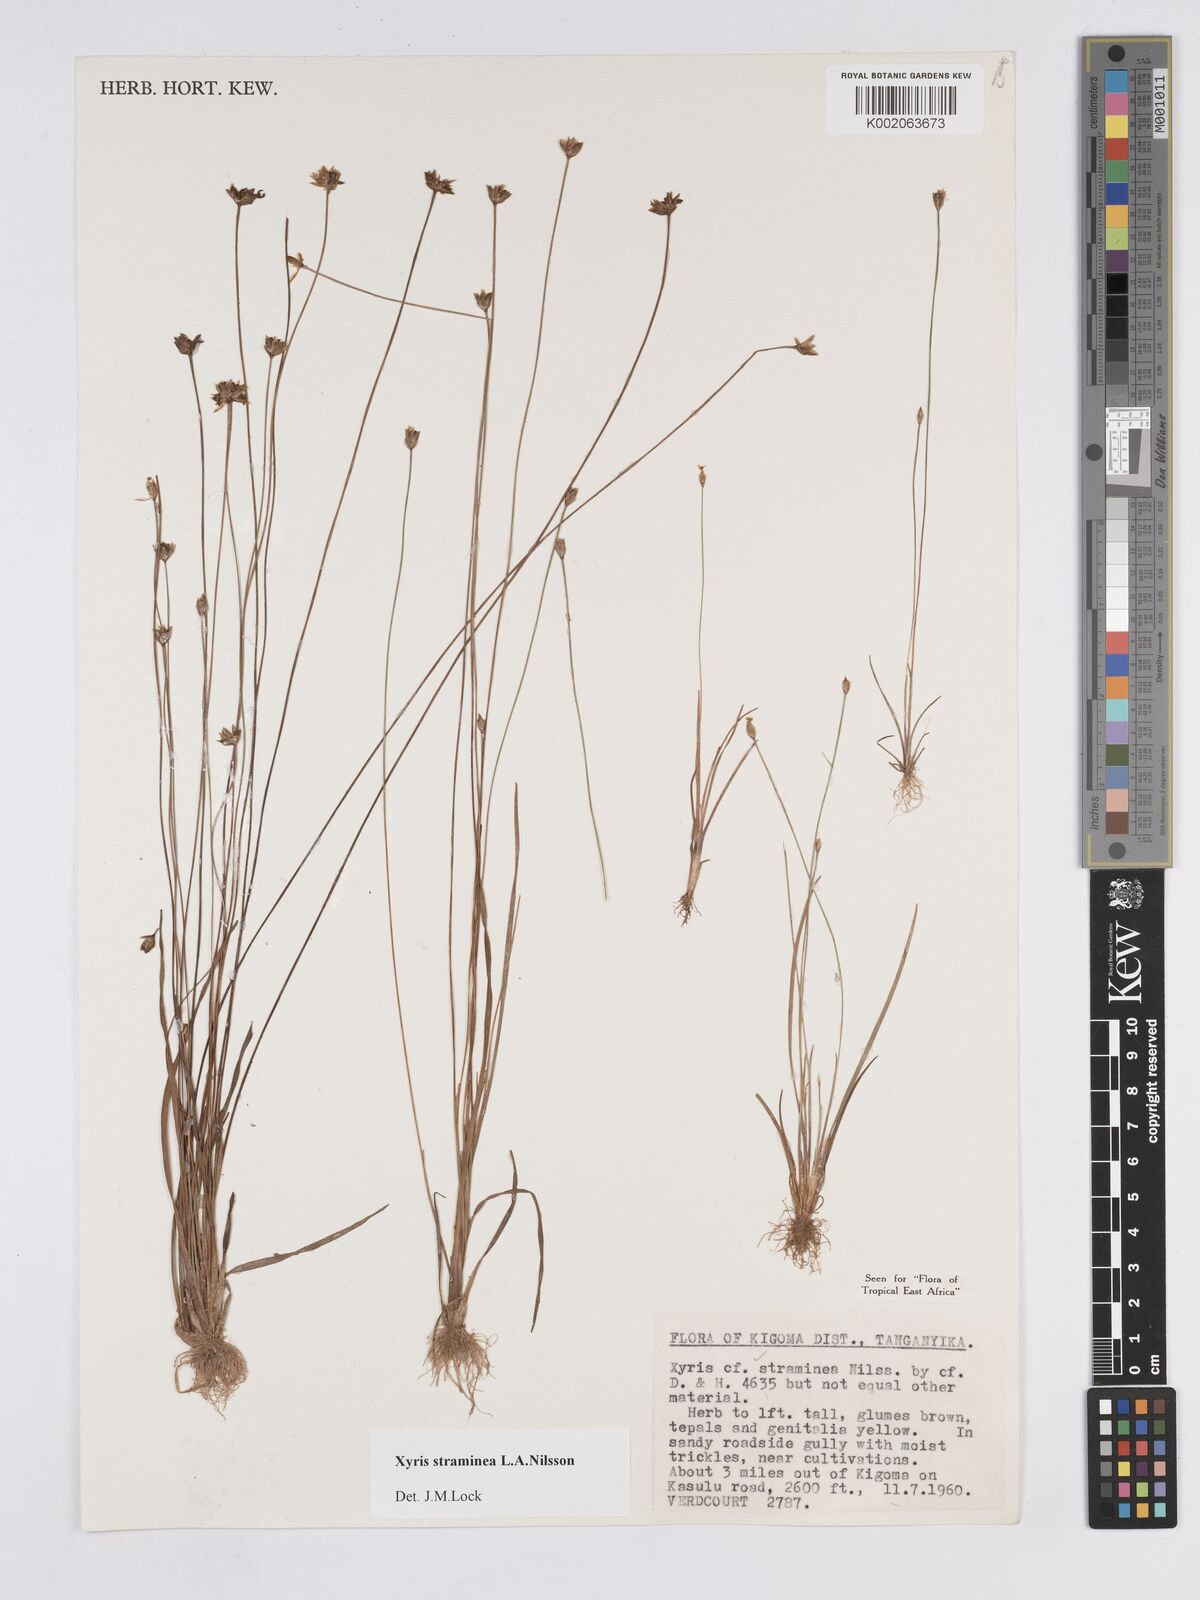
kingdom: Plantae
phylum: Tracheophyta
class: Liliopsida
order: Poales
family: Xyridaceae
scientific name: Xyridaceae
